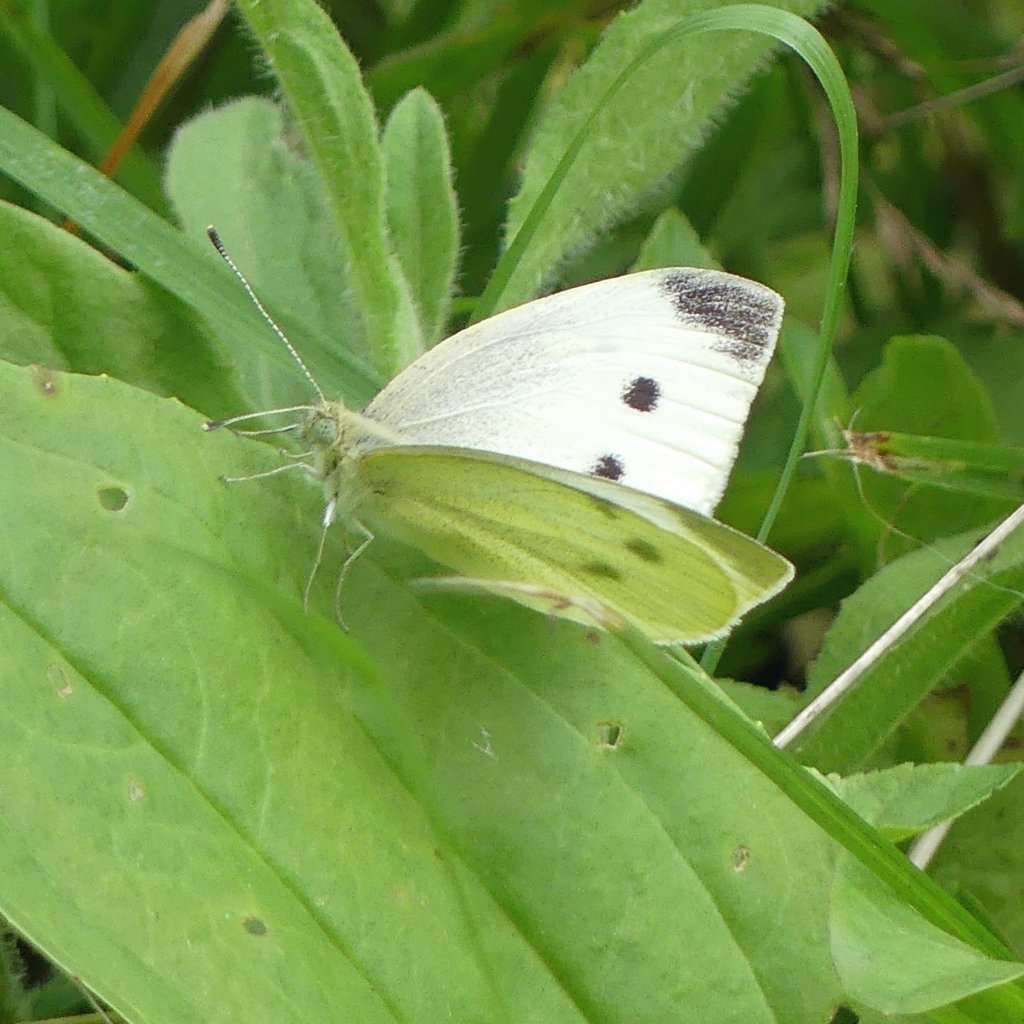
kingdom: Animalia
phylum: Arthropoda
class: Insecta
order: Lepidoptera
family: Pieridae
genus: Pieris
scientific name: Pieris rapae
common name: Cabbage White
